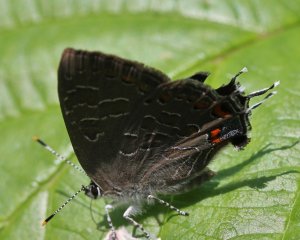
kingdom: Animalia
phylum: Arthropoda
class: Insecta
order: Lepidoptera
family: Lycaenidae
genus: Satyrium
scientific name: Satyrium liparops
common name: Striped Hairstreak
